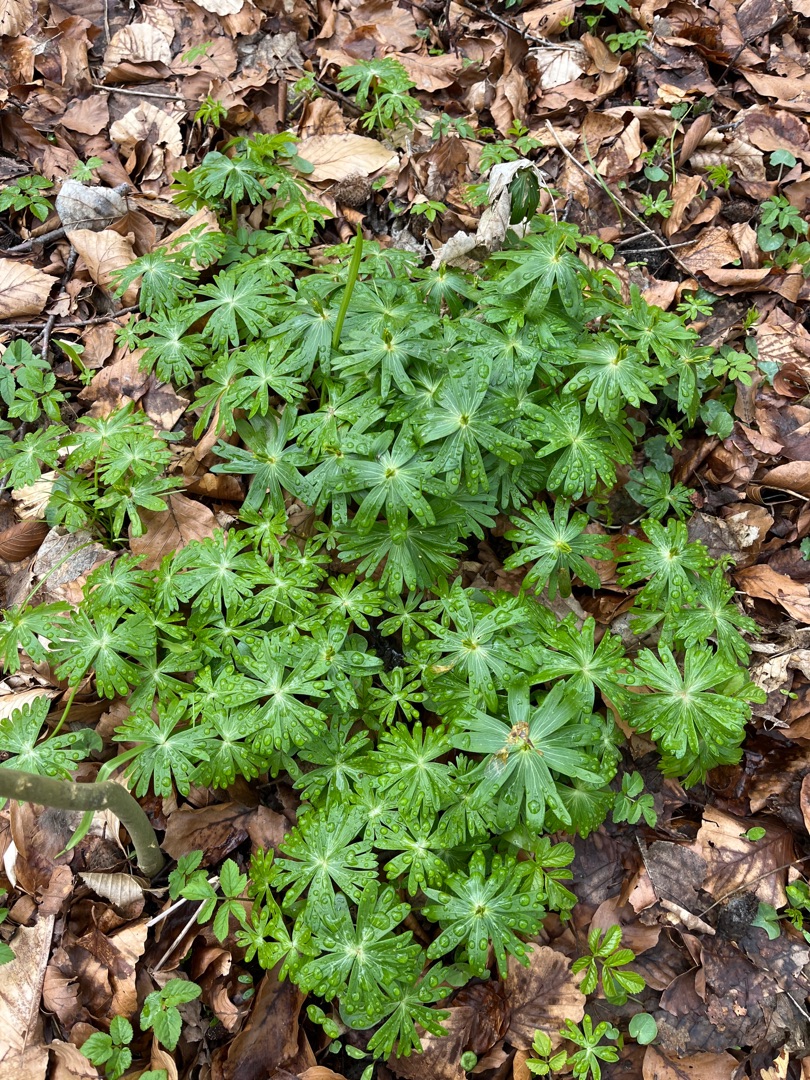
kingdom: Plantae
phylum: Tracheophyta
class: Magnoliopsida
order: Ranunculales
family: Ranunculaceae
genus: Eranthis
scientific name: Eranthis hyemalis
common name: Erantis
